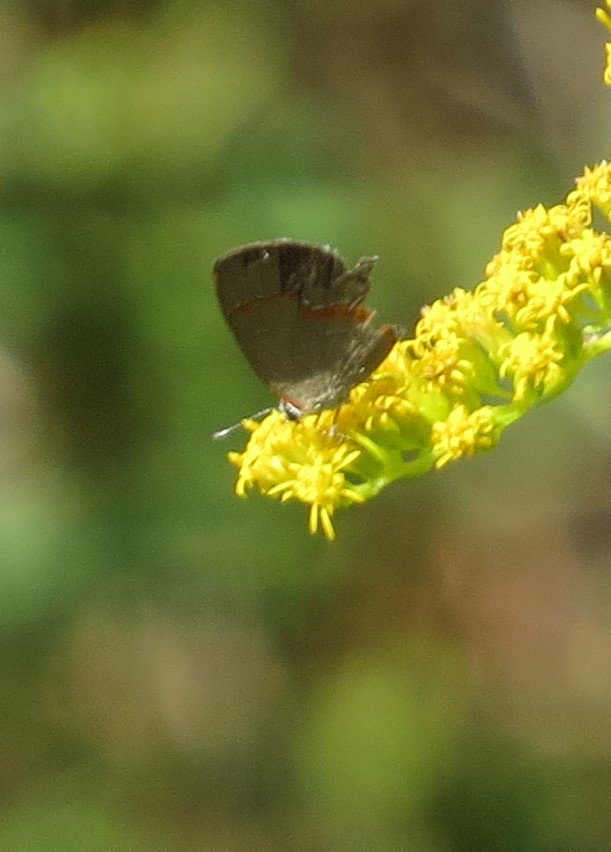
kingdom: Animalia
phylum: Arthropoda
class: Insecta
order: Lepidoptera
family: Lycaenidae
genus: Calycopis
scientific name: Calycopis cecrops
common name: Red-banded Hairstreak
